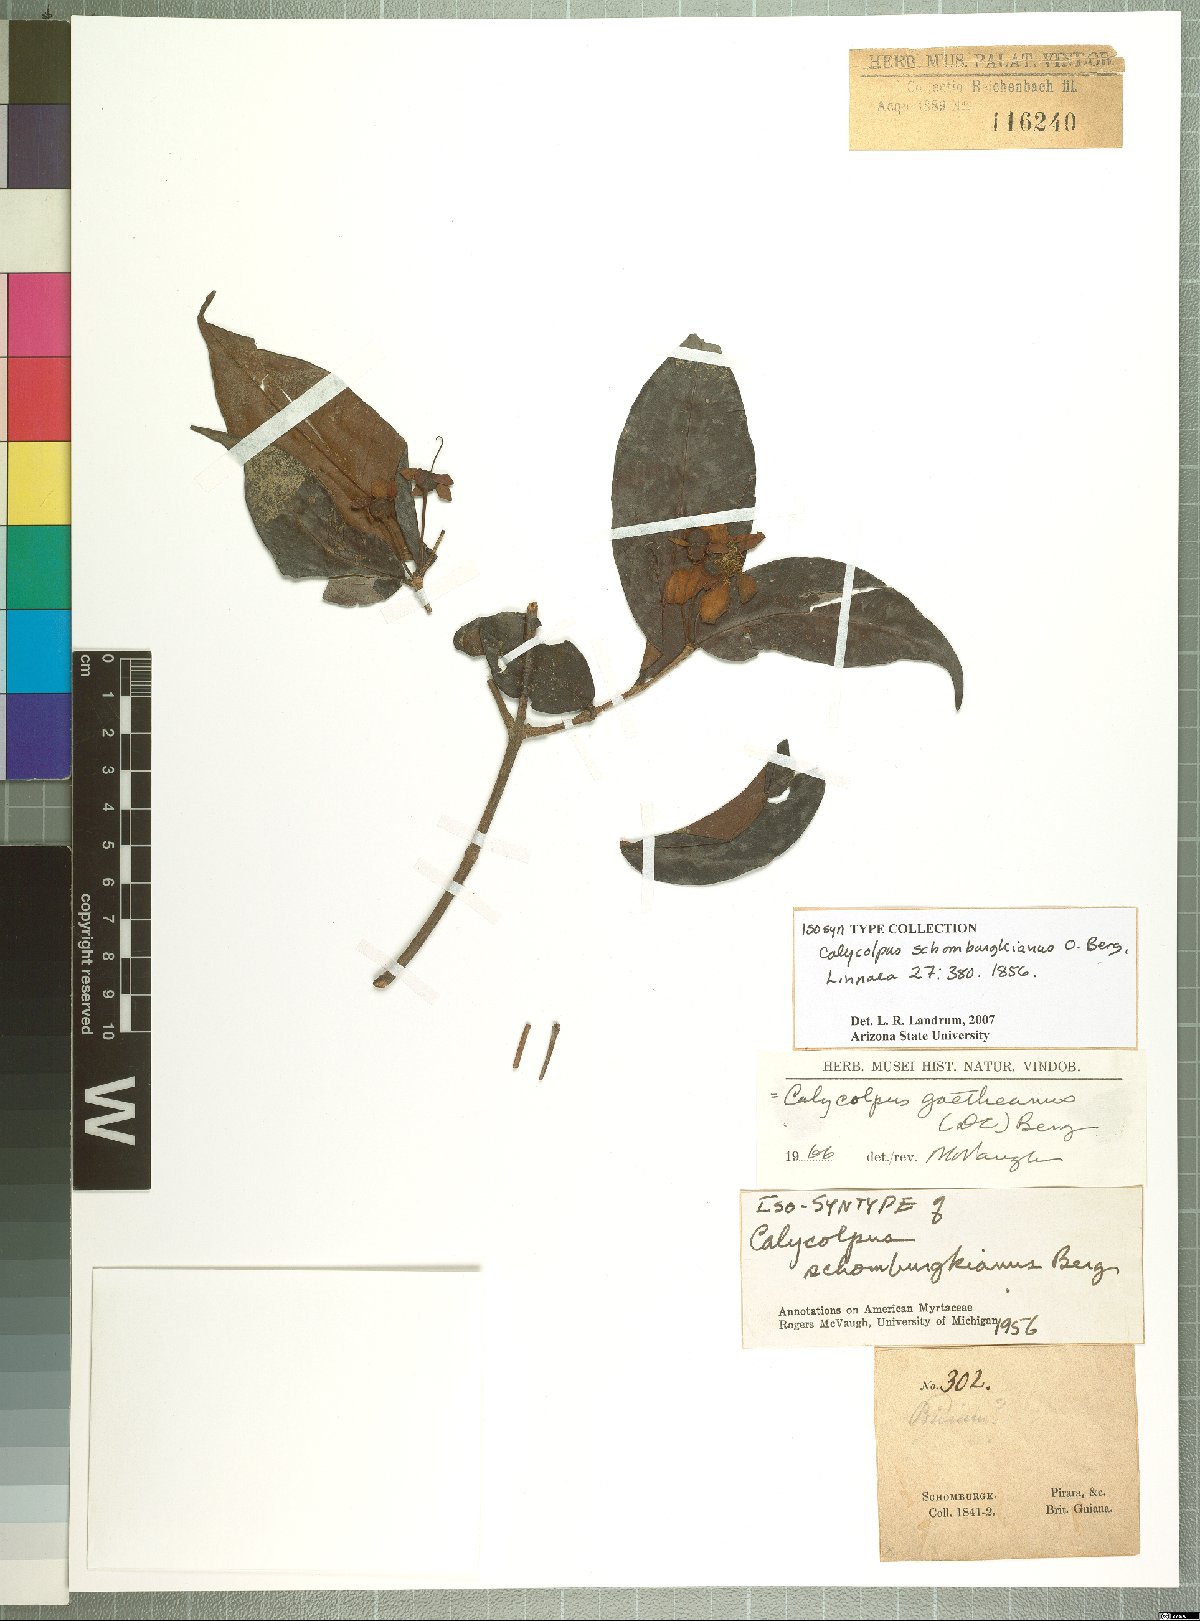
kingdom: Plantae
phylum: Tracheophyta
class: Magnoliopsida
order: Myrtales
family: Myrtaceae
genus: Calycolpus
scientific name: Calycolpus goetheanus
